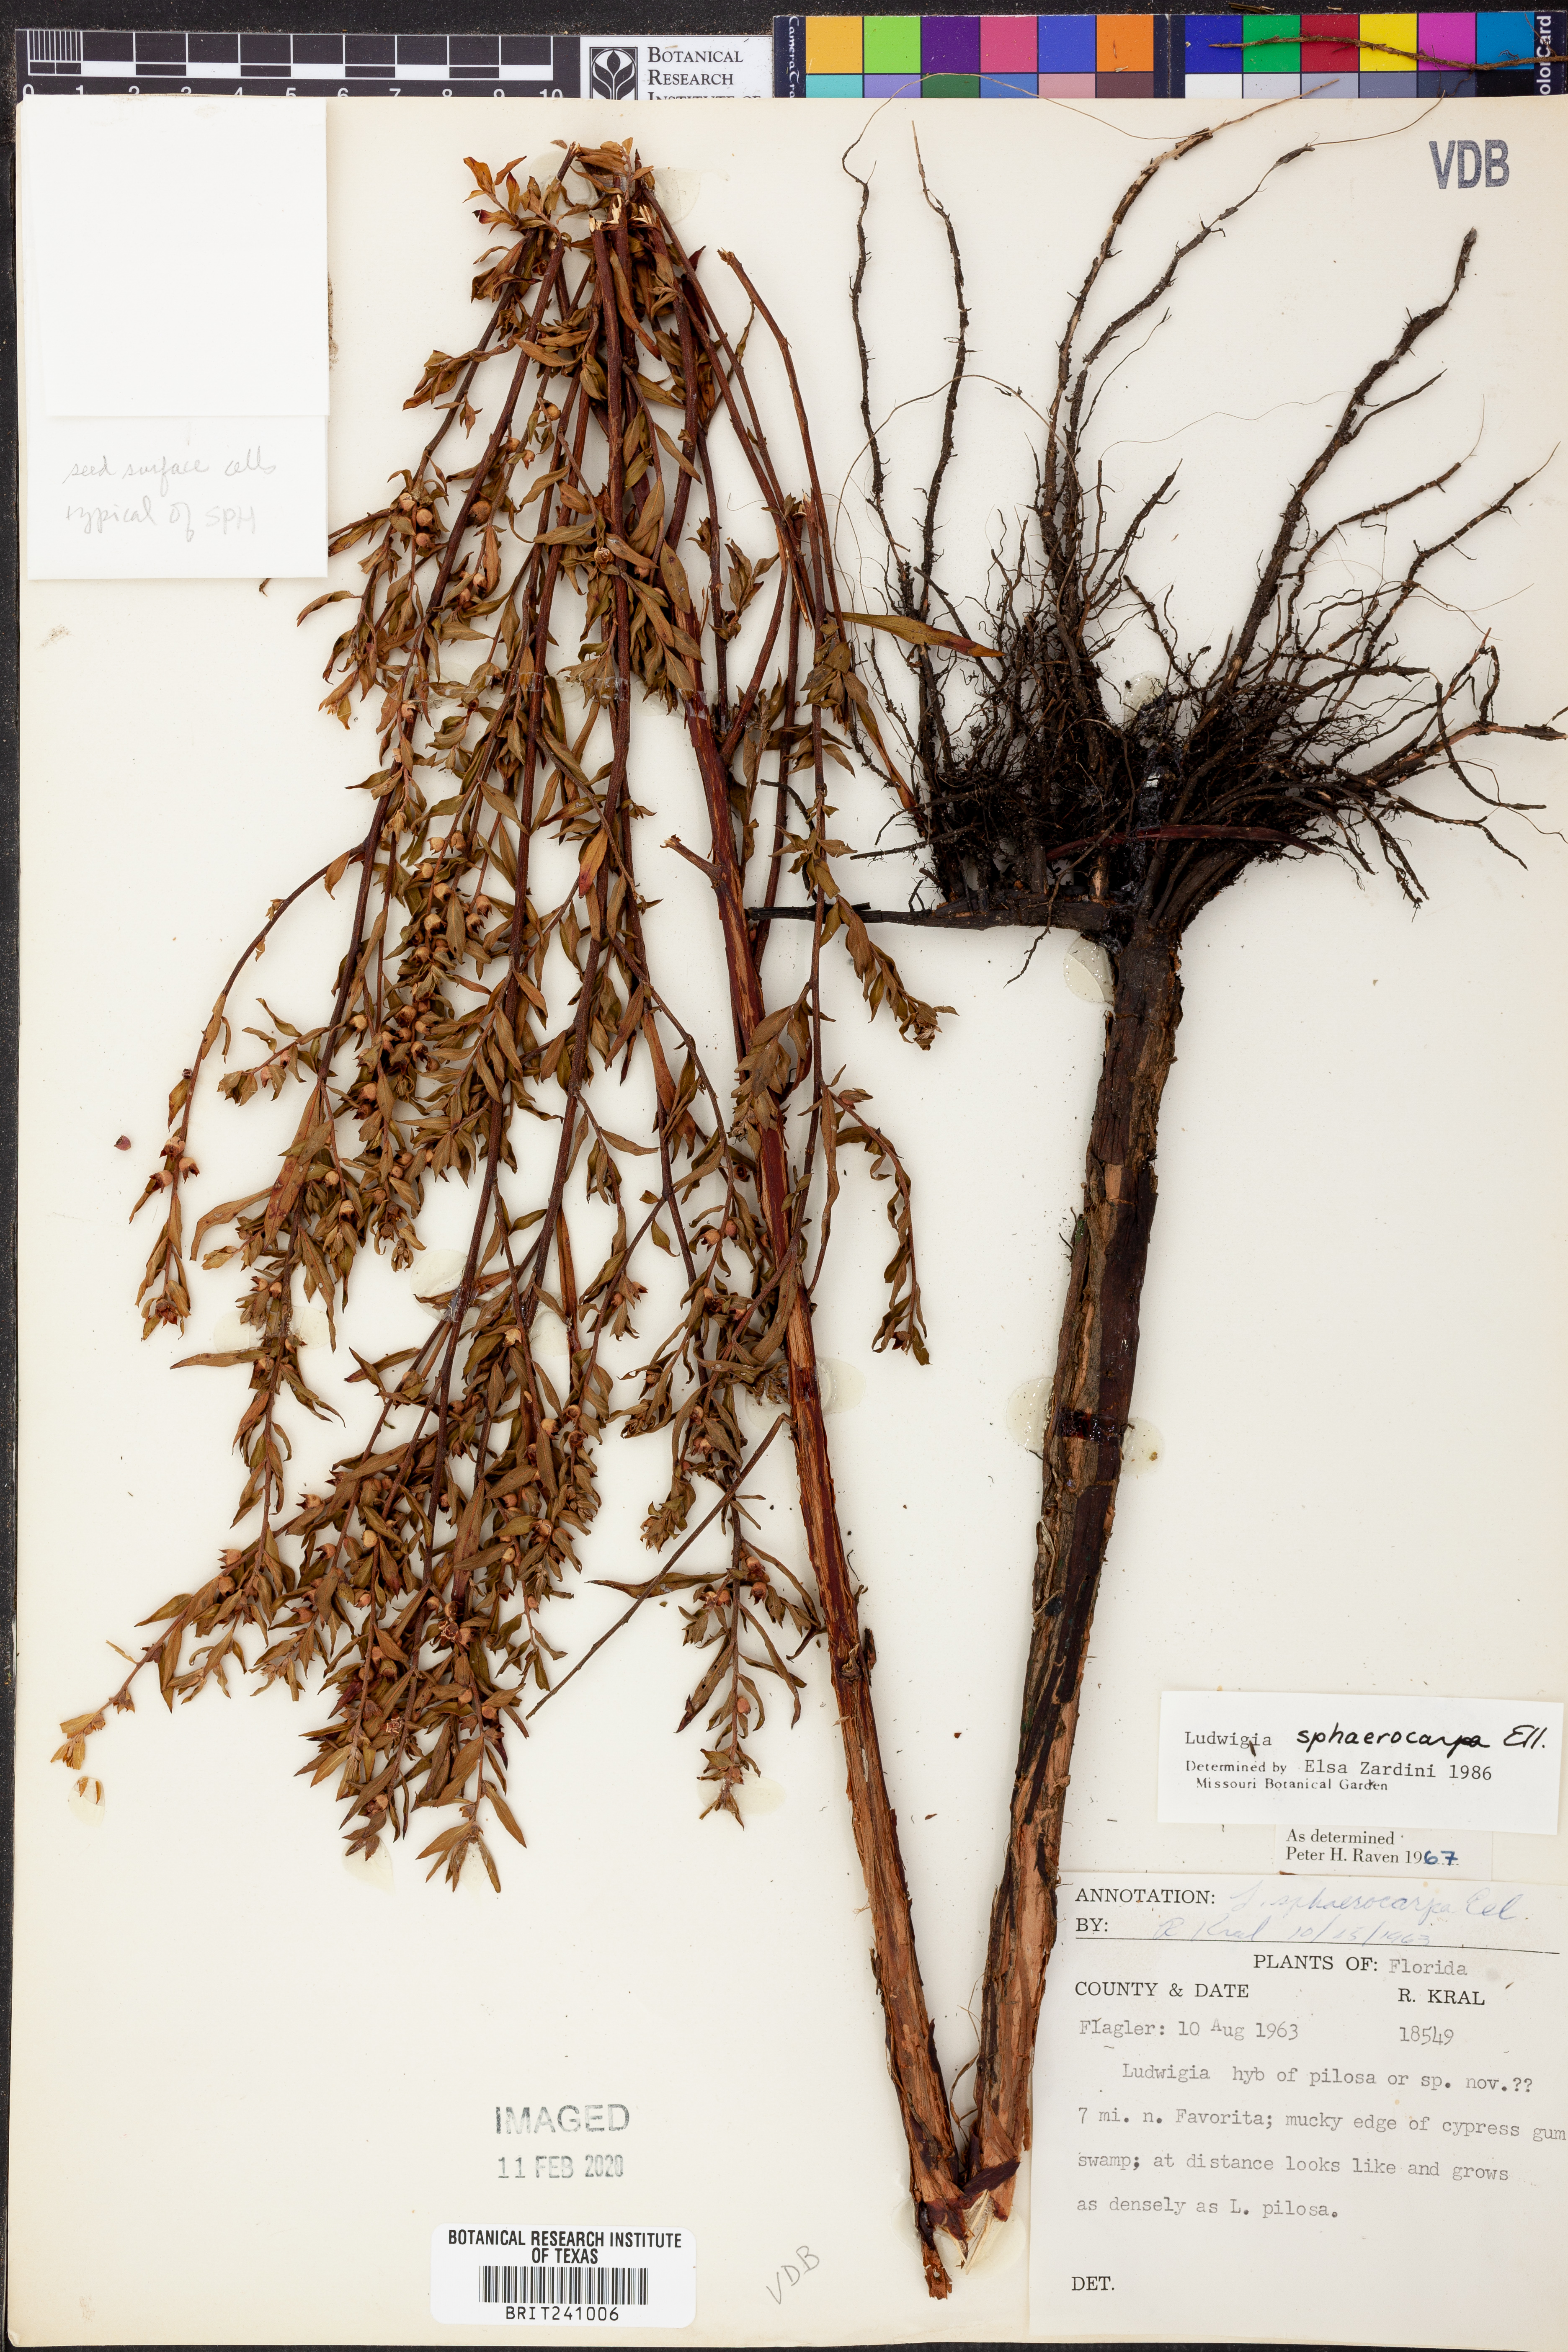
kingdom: Plantae
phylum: Tracheophyta
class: Magnoliopsida
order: Myrtales
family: Onagraceae
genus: Ludwigia
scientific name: Ludwigia sphaerocarpa
